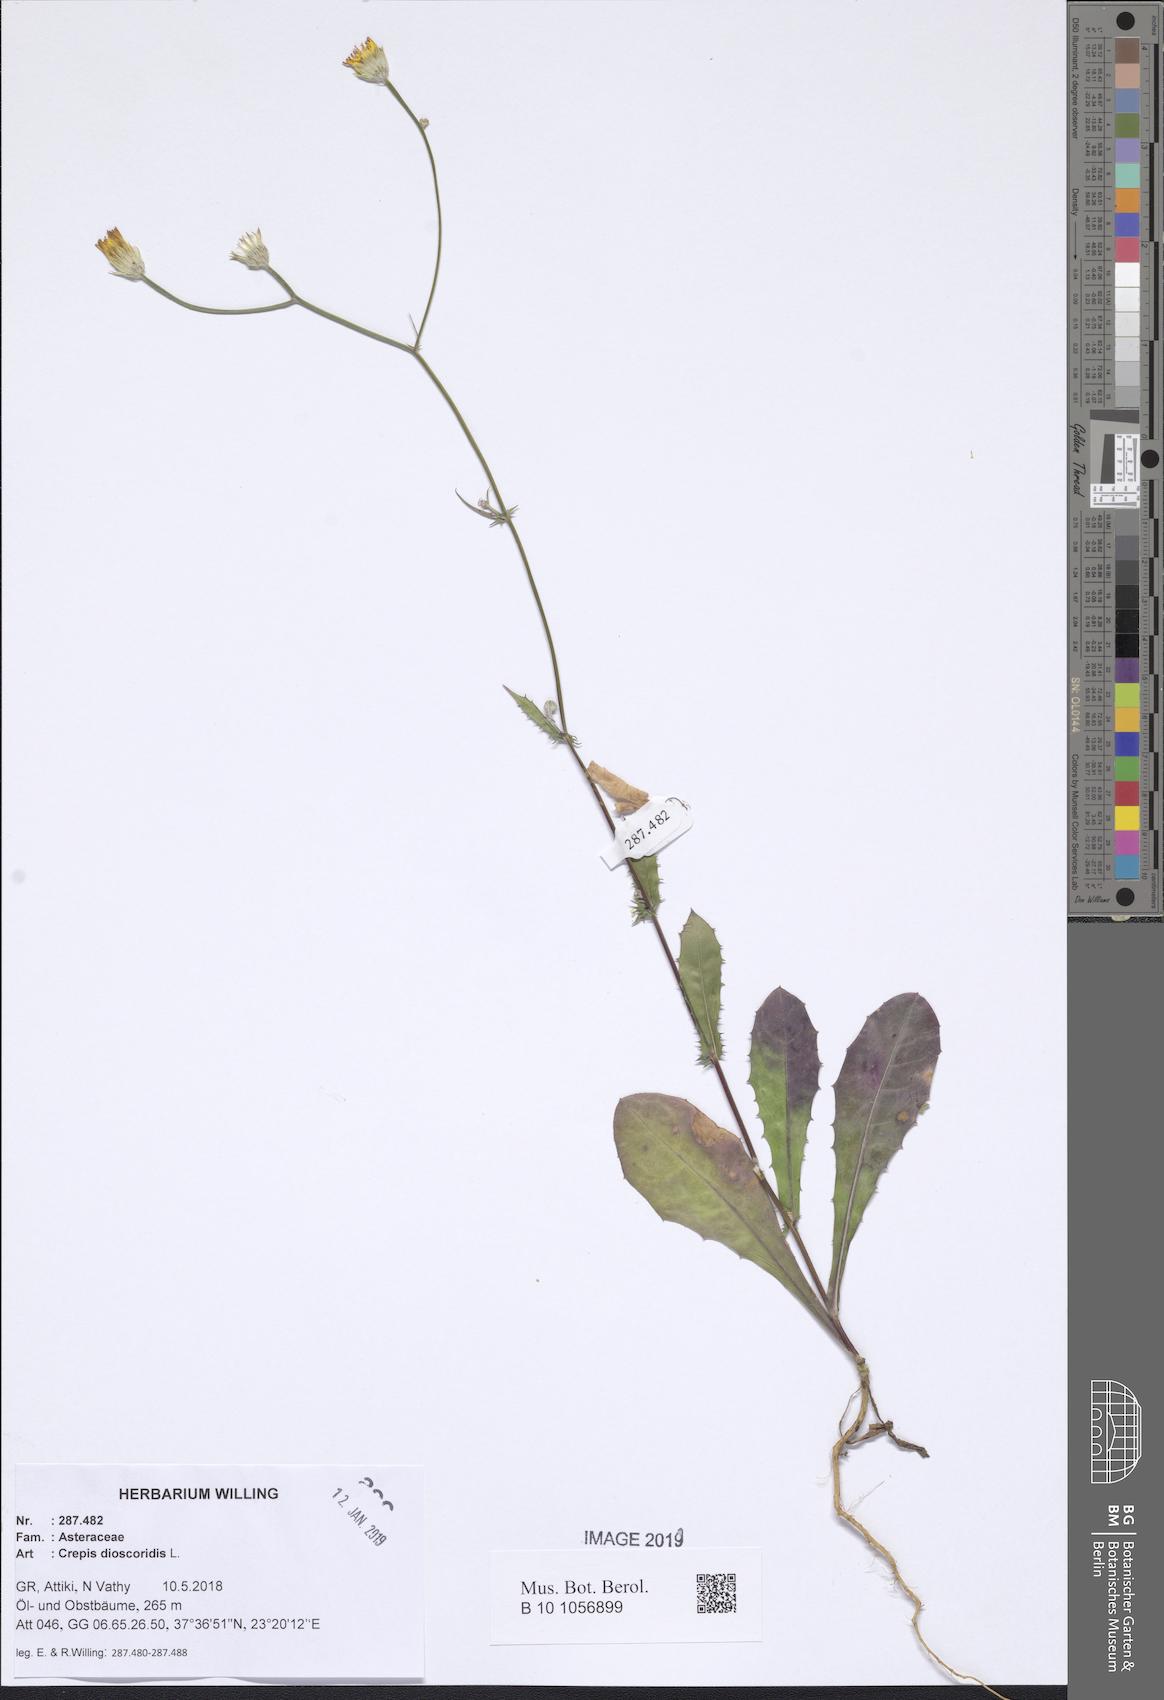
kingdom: Plantae
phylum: Tracheophyta
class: Magnoliopsida
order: Asterales
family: Asteraceae
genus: Crepis
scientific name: Crepis dioscoridis
